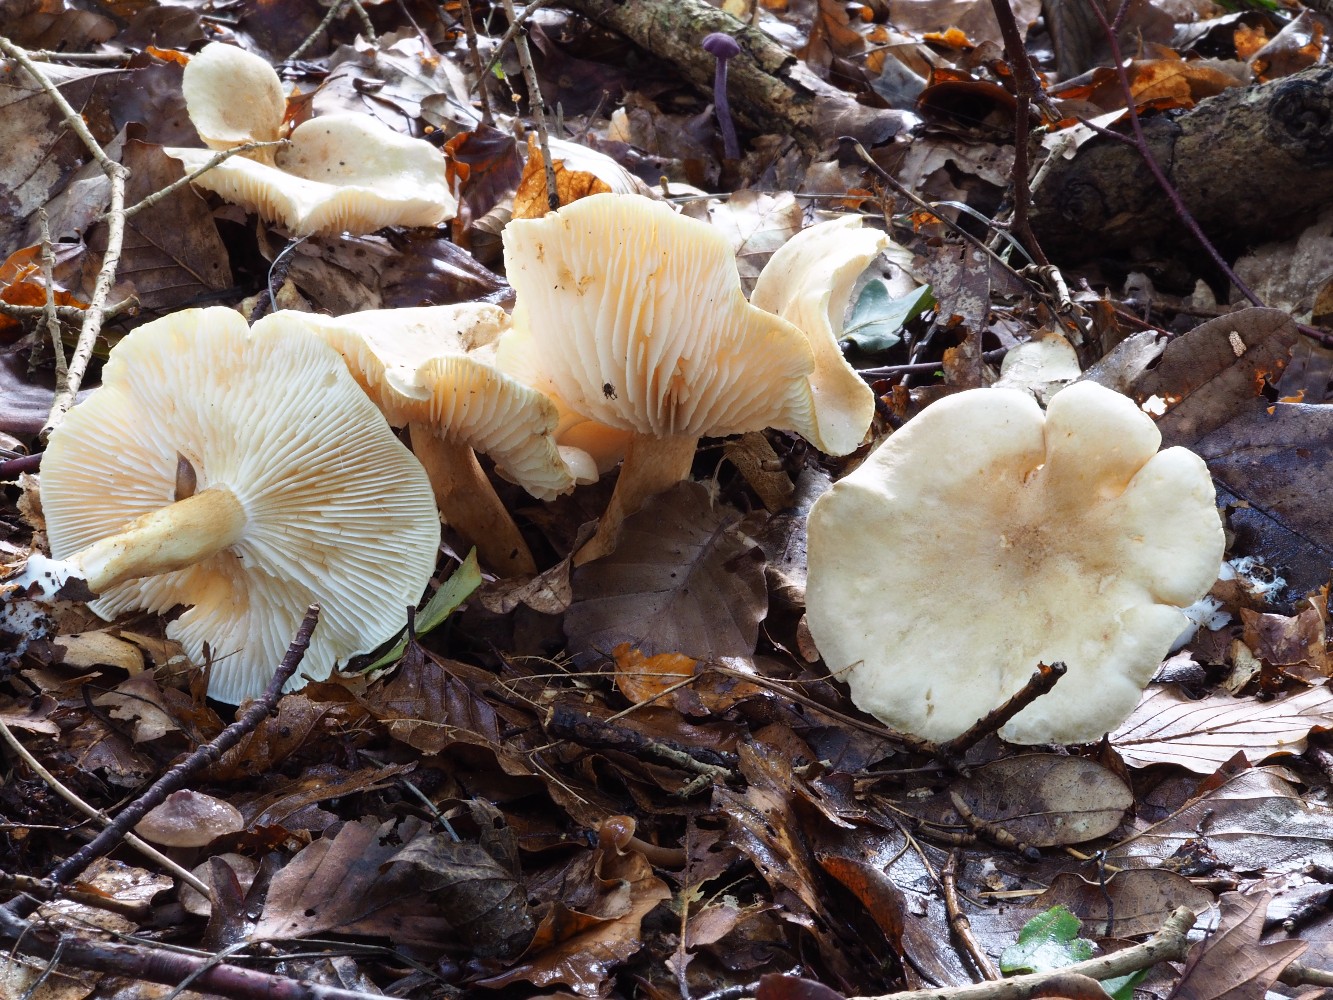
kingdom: Fungi
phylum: Basidiomycota
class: Agaricomycetes
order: Agaricales
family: Tricholomataceae
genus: Tricholoma
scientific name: Tricholoma album
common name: honning-ridderhat
